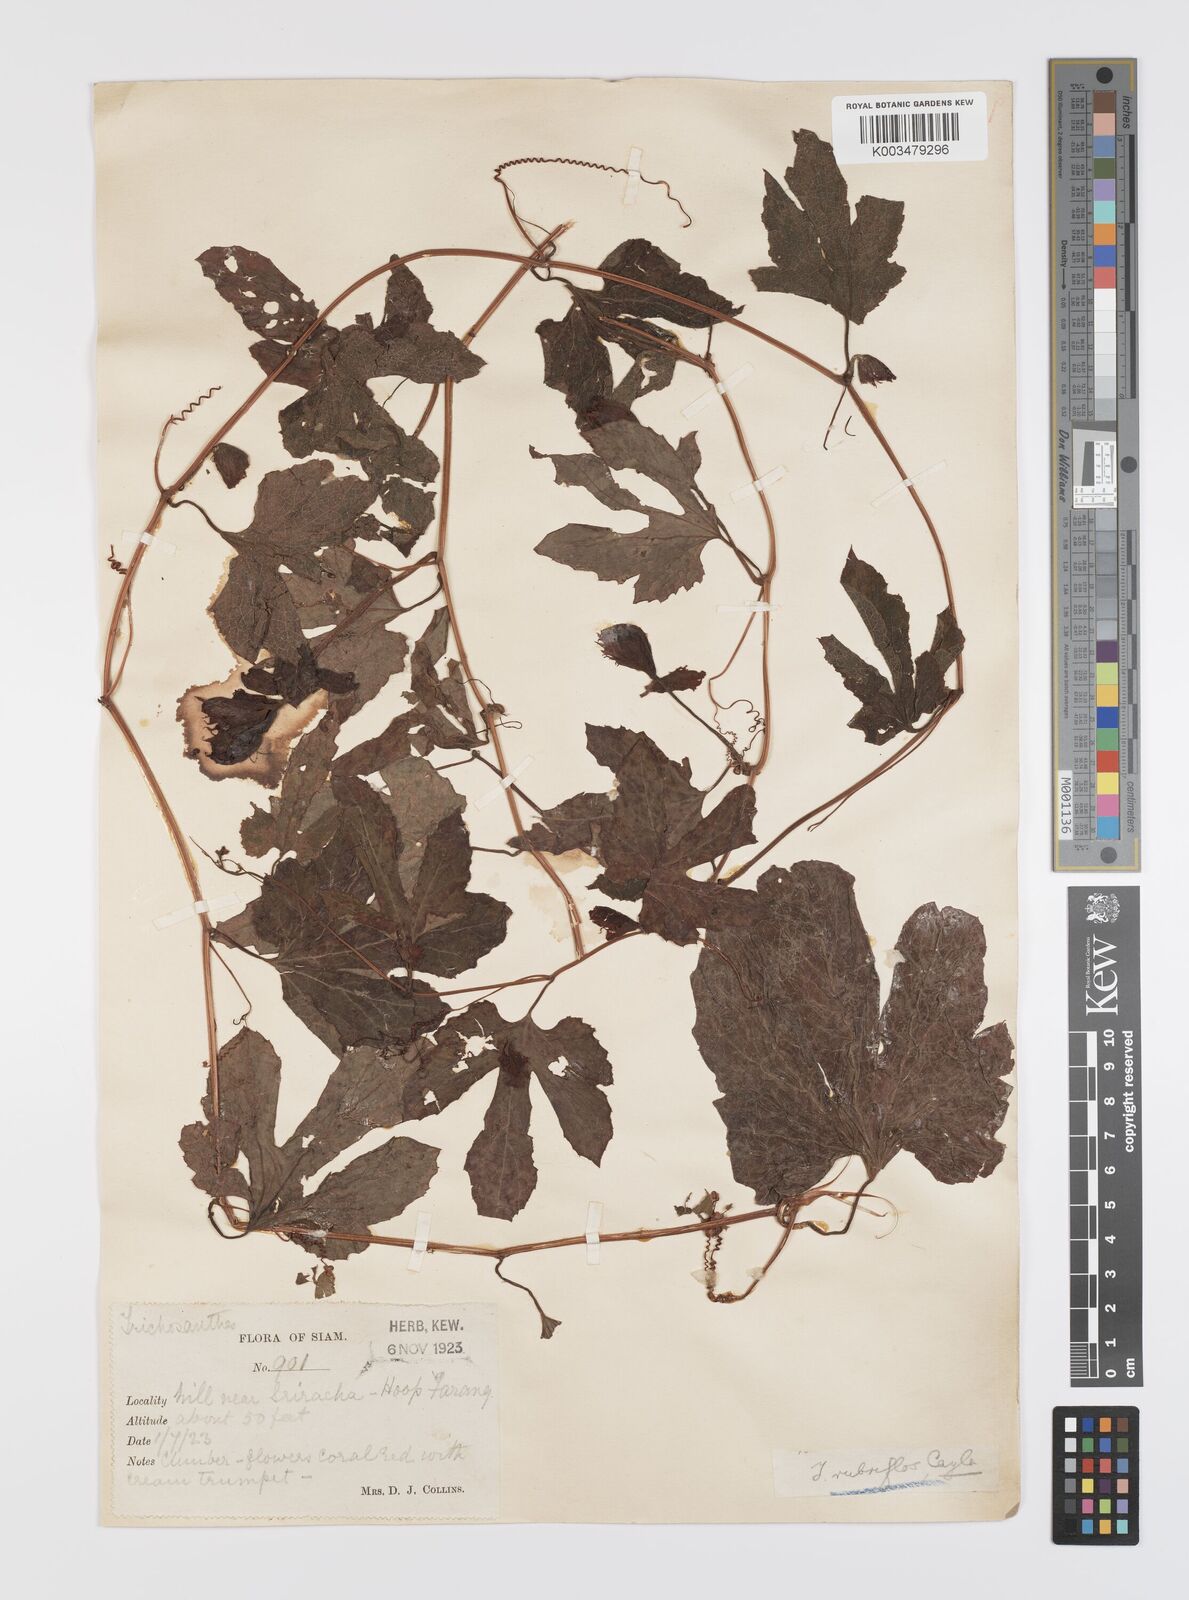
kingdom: Plantae
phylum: Tracheophyta
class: Magnoliopsida
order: Cucurbitales
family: Cucurbitaceae
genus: Trichosanthes
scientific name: Trichosanthes rubriflos
